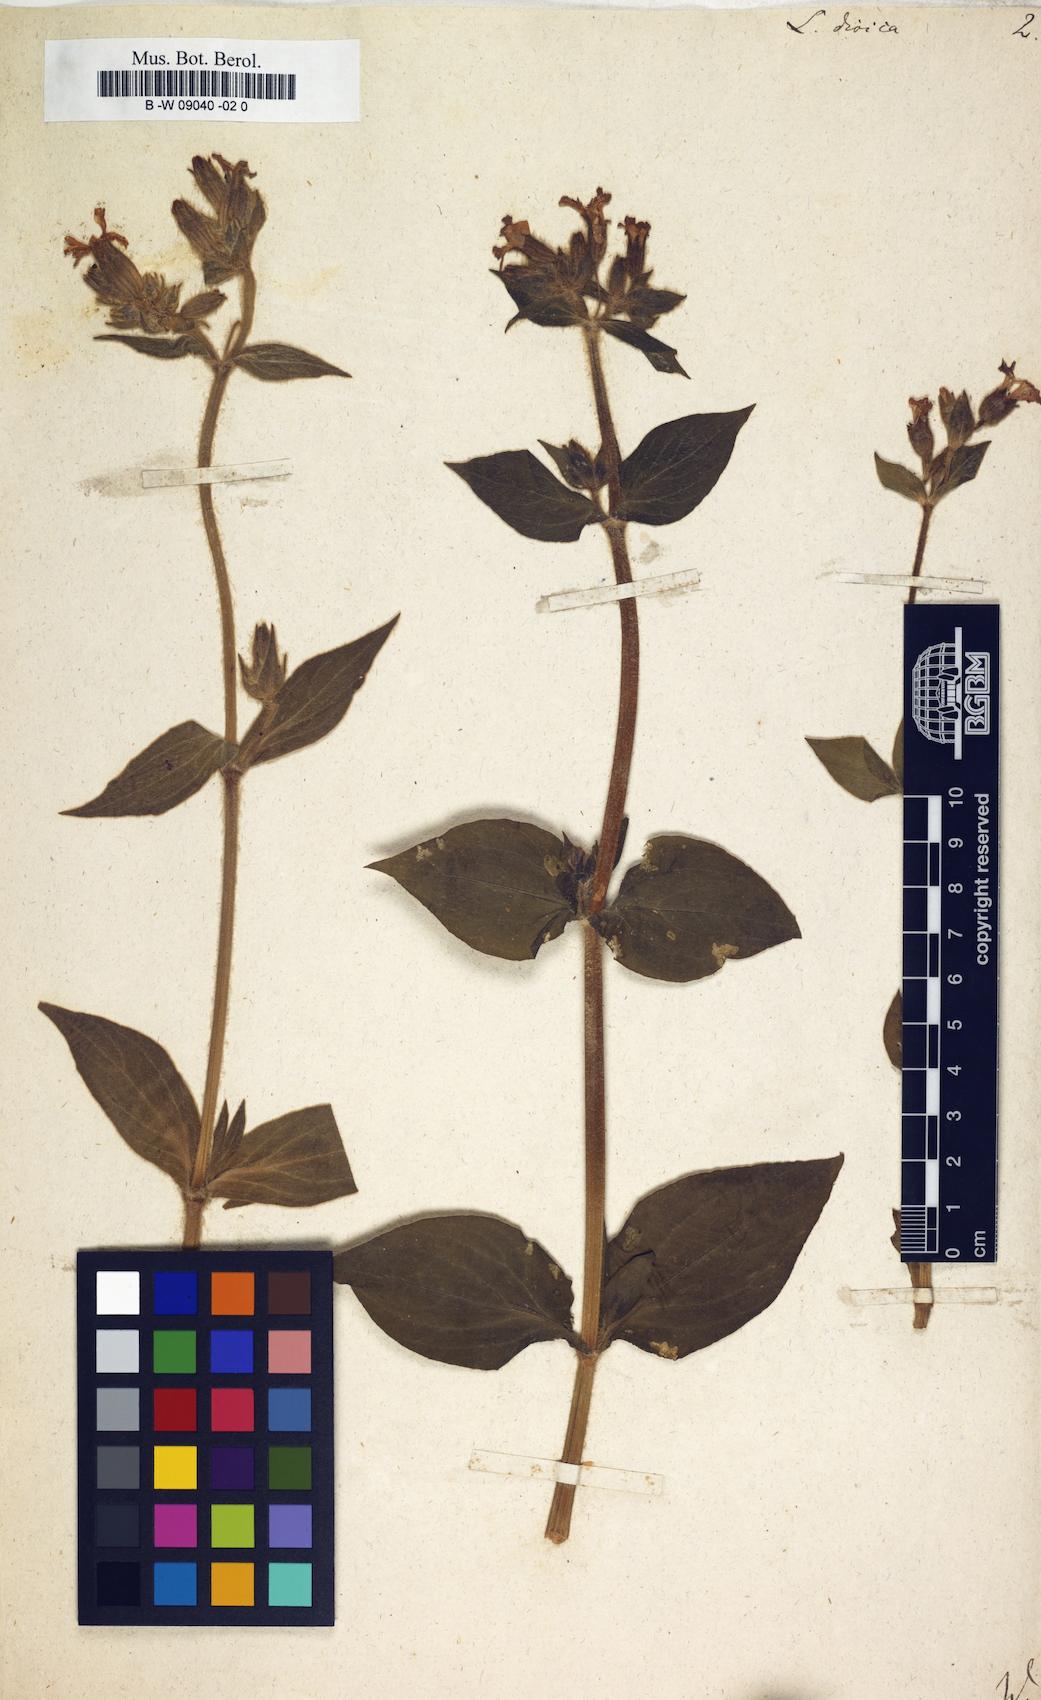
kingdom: Plantae
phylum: Tracheophyta
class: Magnoliopsida
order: Caryophyllales
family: Caryophyllaceae
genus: Silene
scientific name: Silene dioica
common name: Red campion
